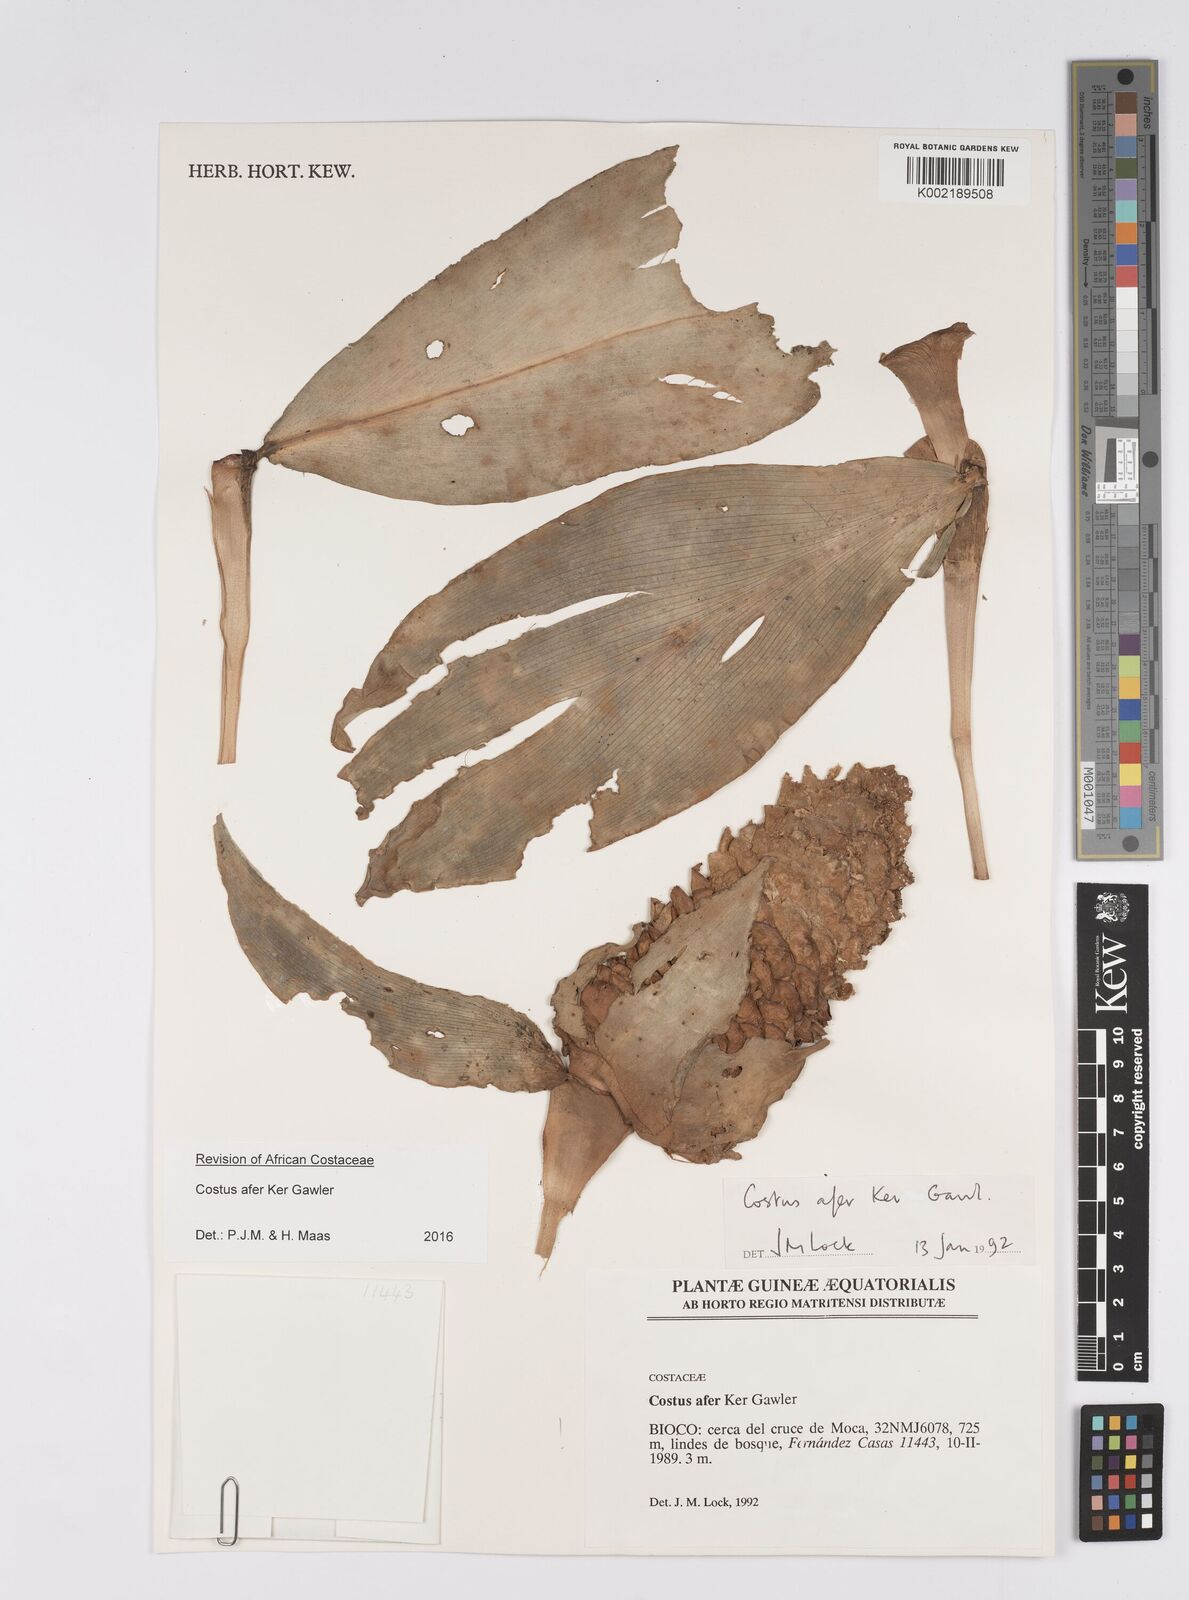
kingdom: Plantae
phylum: Tracheophyta
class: Liliopsida
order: Zingiberales
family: Costaceae
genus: Costus
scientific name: Costus afer
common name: Spiral-ginger
